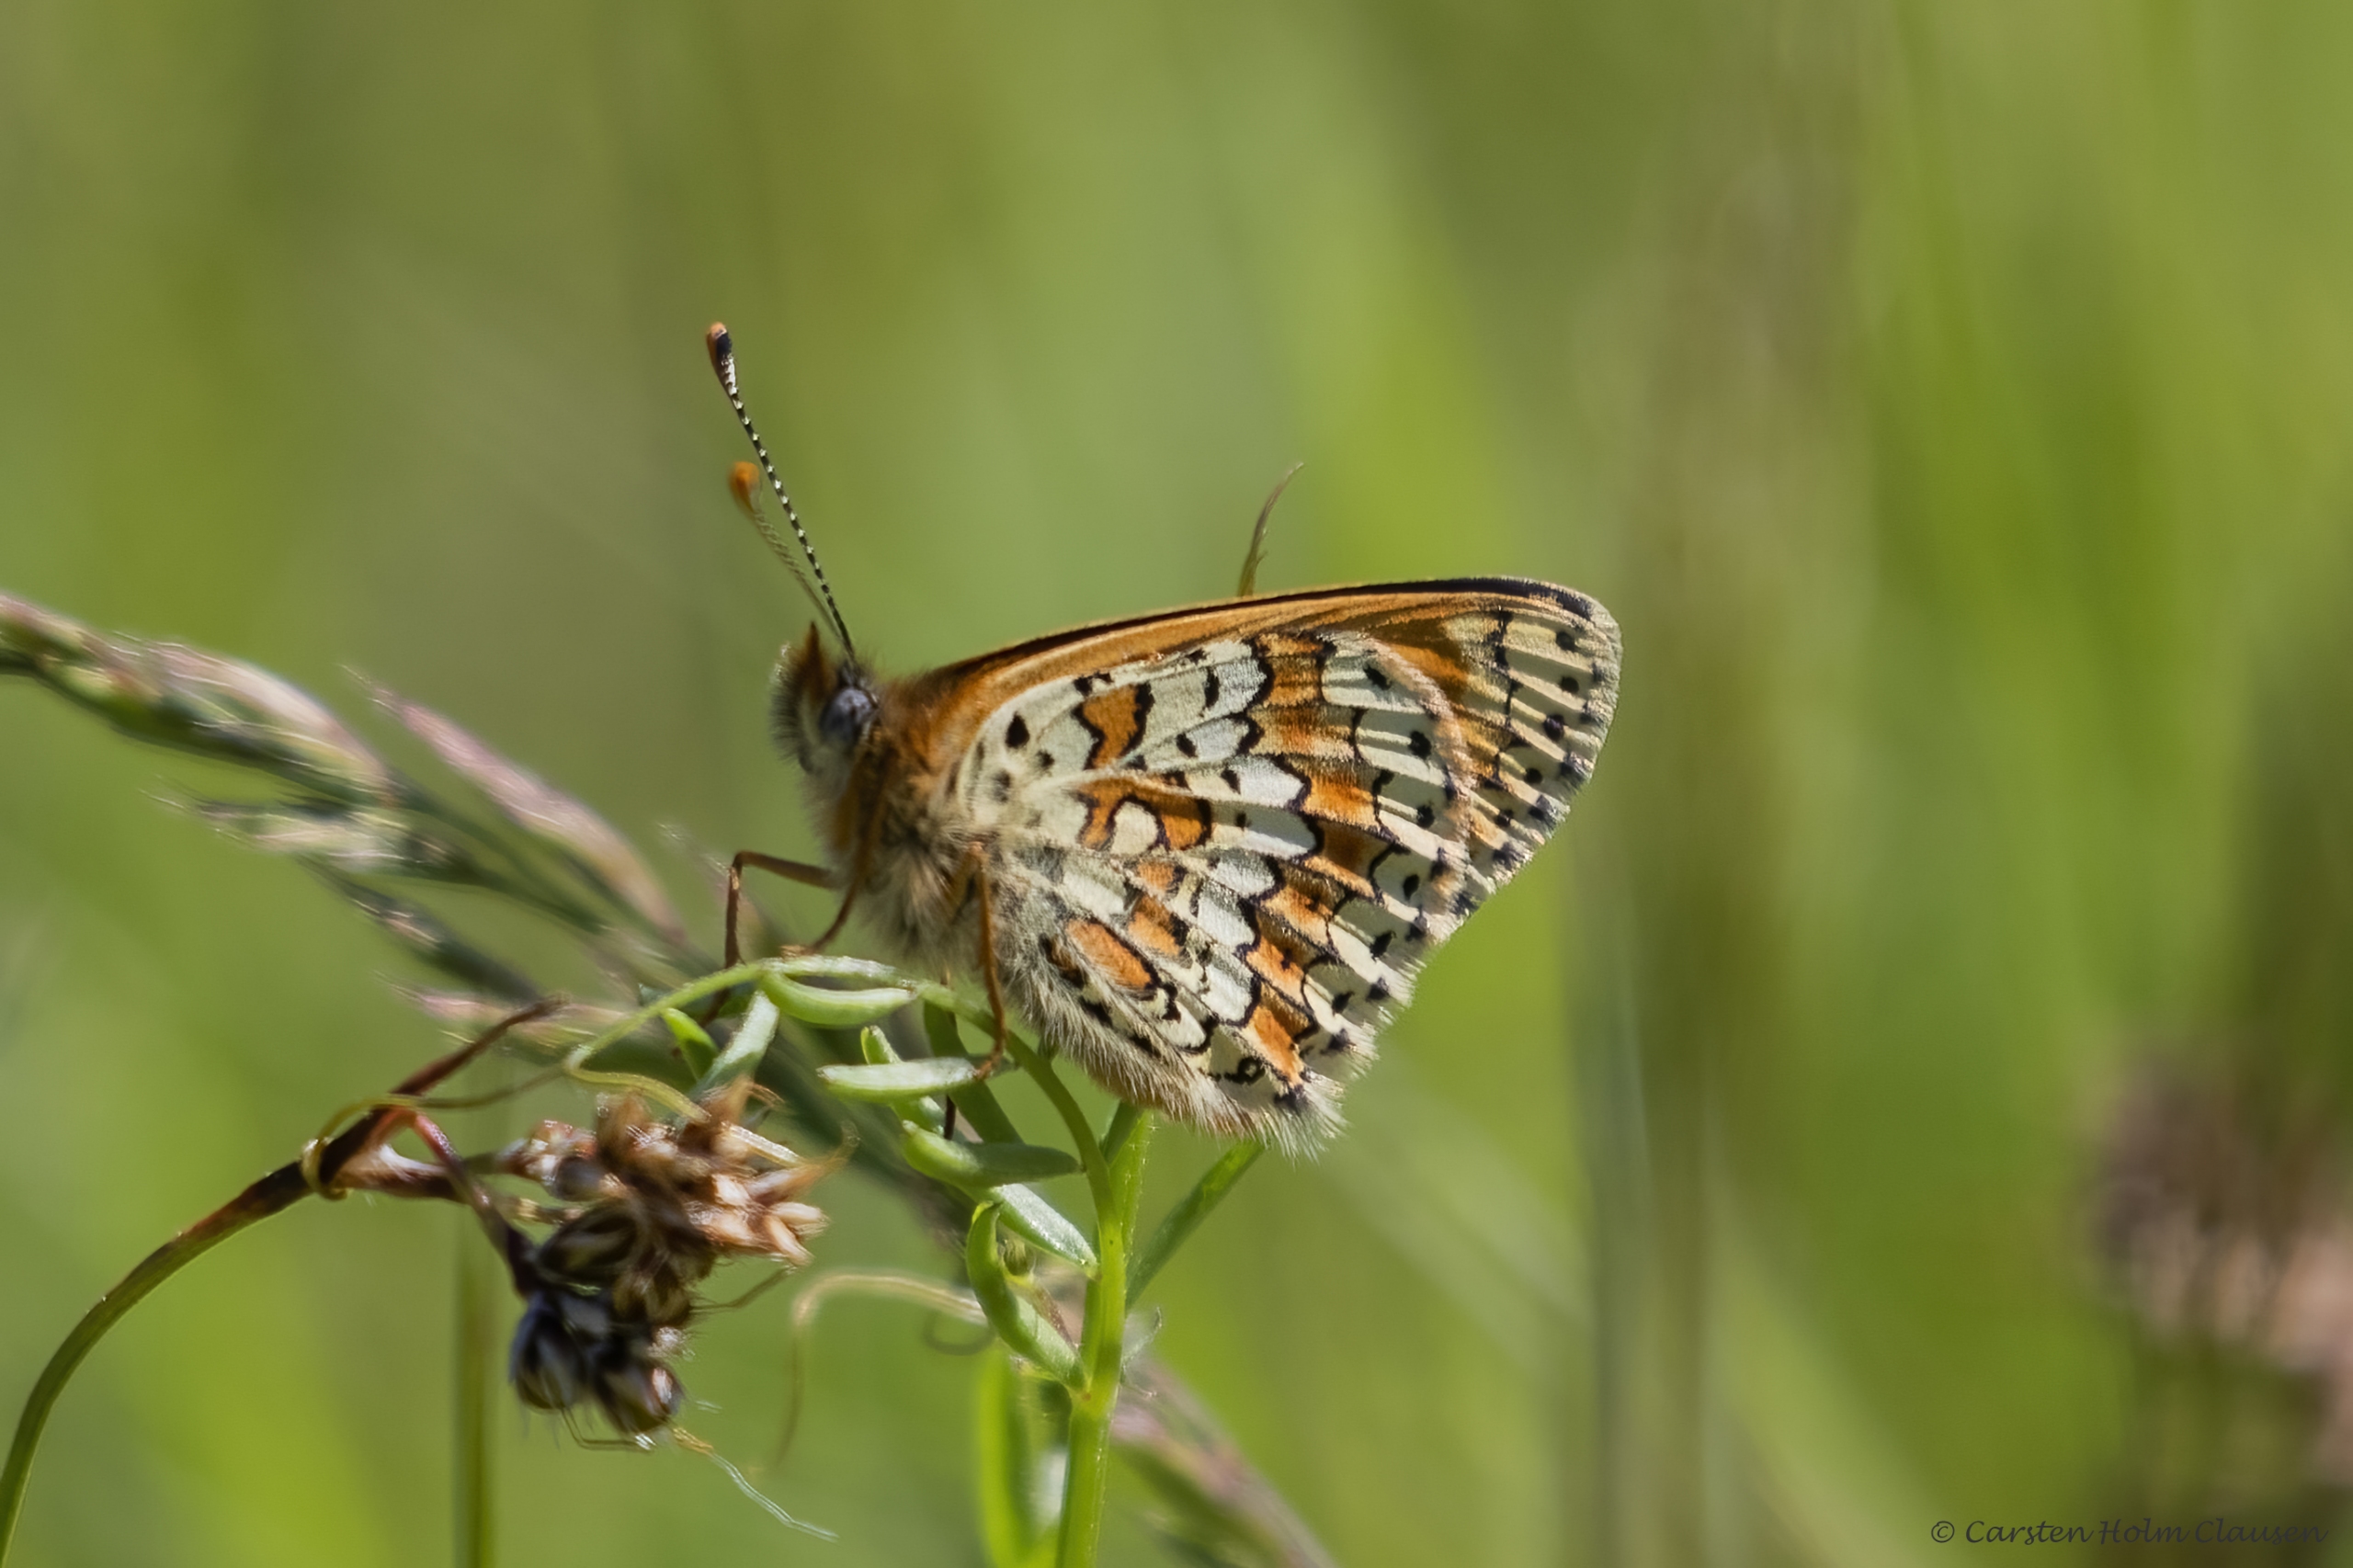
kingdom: Animalia
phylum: Arthropoda
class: Insecta
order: Lepidoptera
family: Nymphalidae
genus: Melitaea
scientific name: Melitaea cinxia
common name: Okkergul pletvinge
